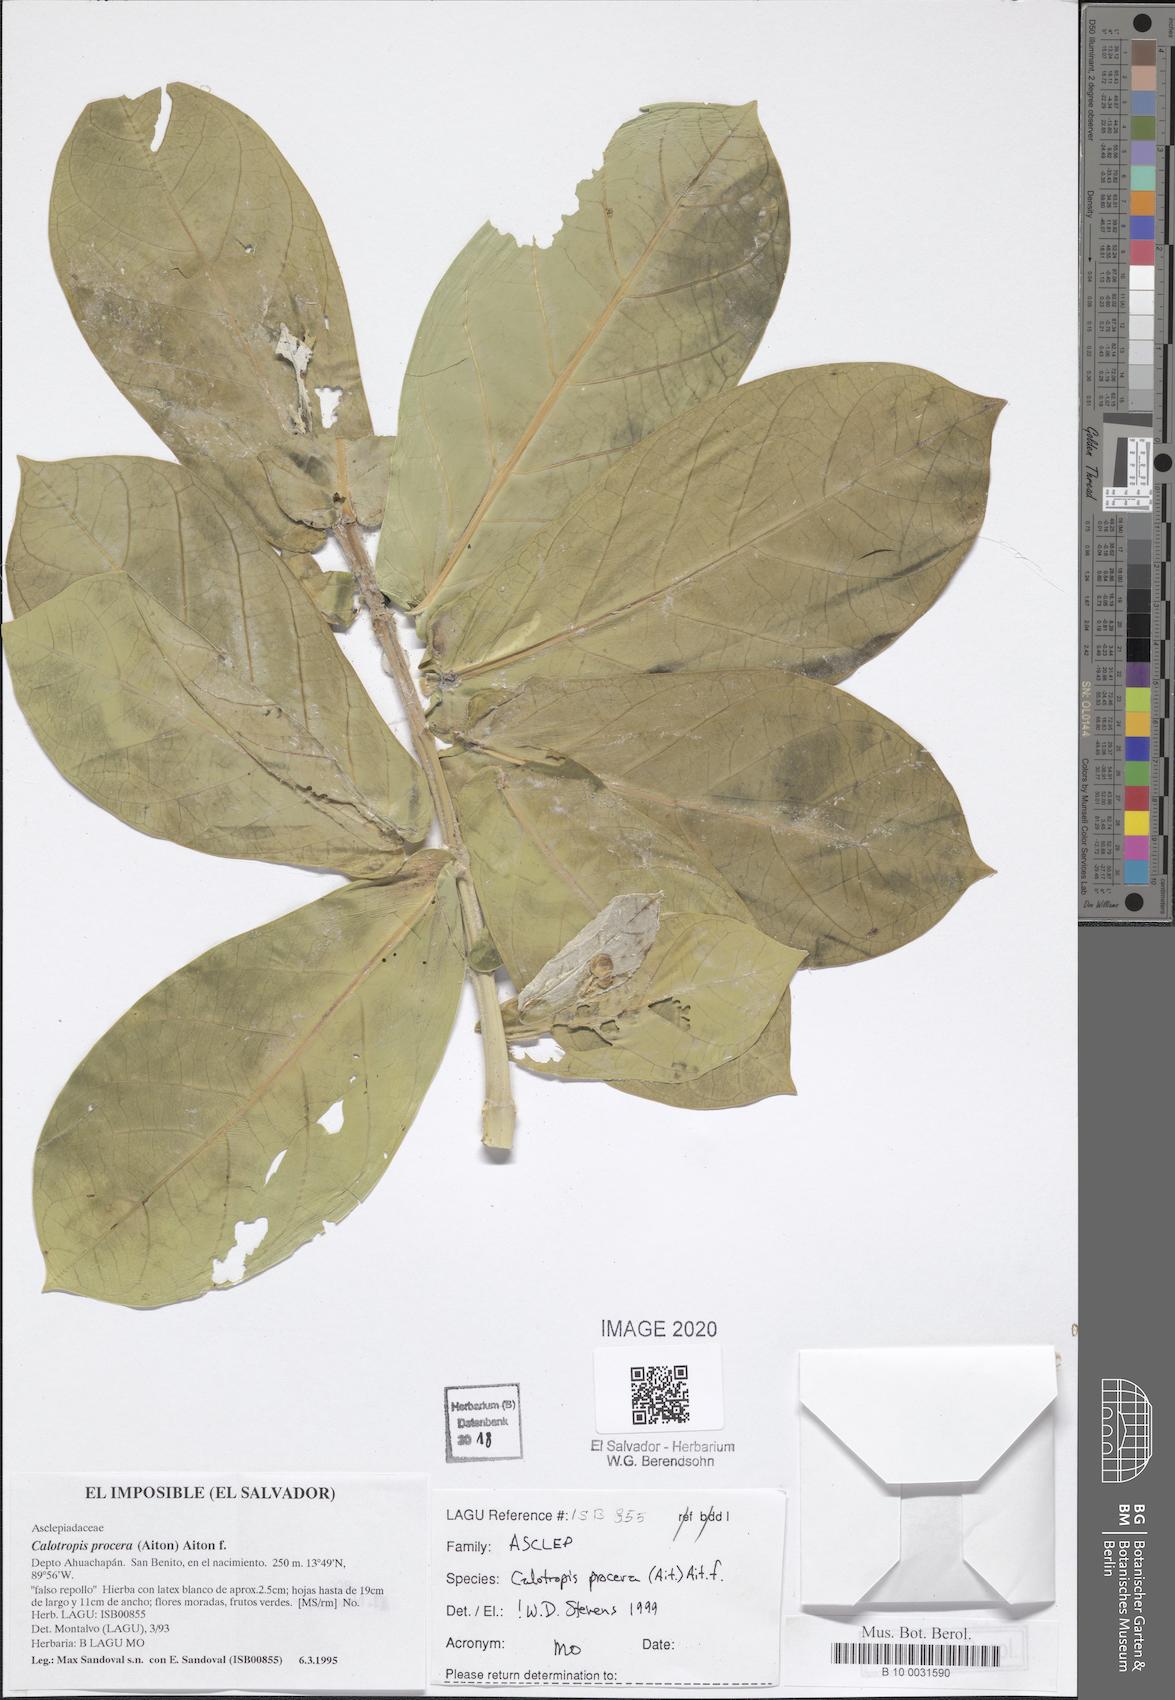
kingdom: Plantae
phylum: Tracheophyta
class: Magnoliopsida
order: Gentianales
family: Apocynaceae
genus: Calotropis
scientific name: Calotropis procera
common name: Roostertree
